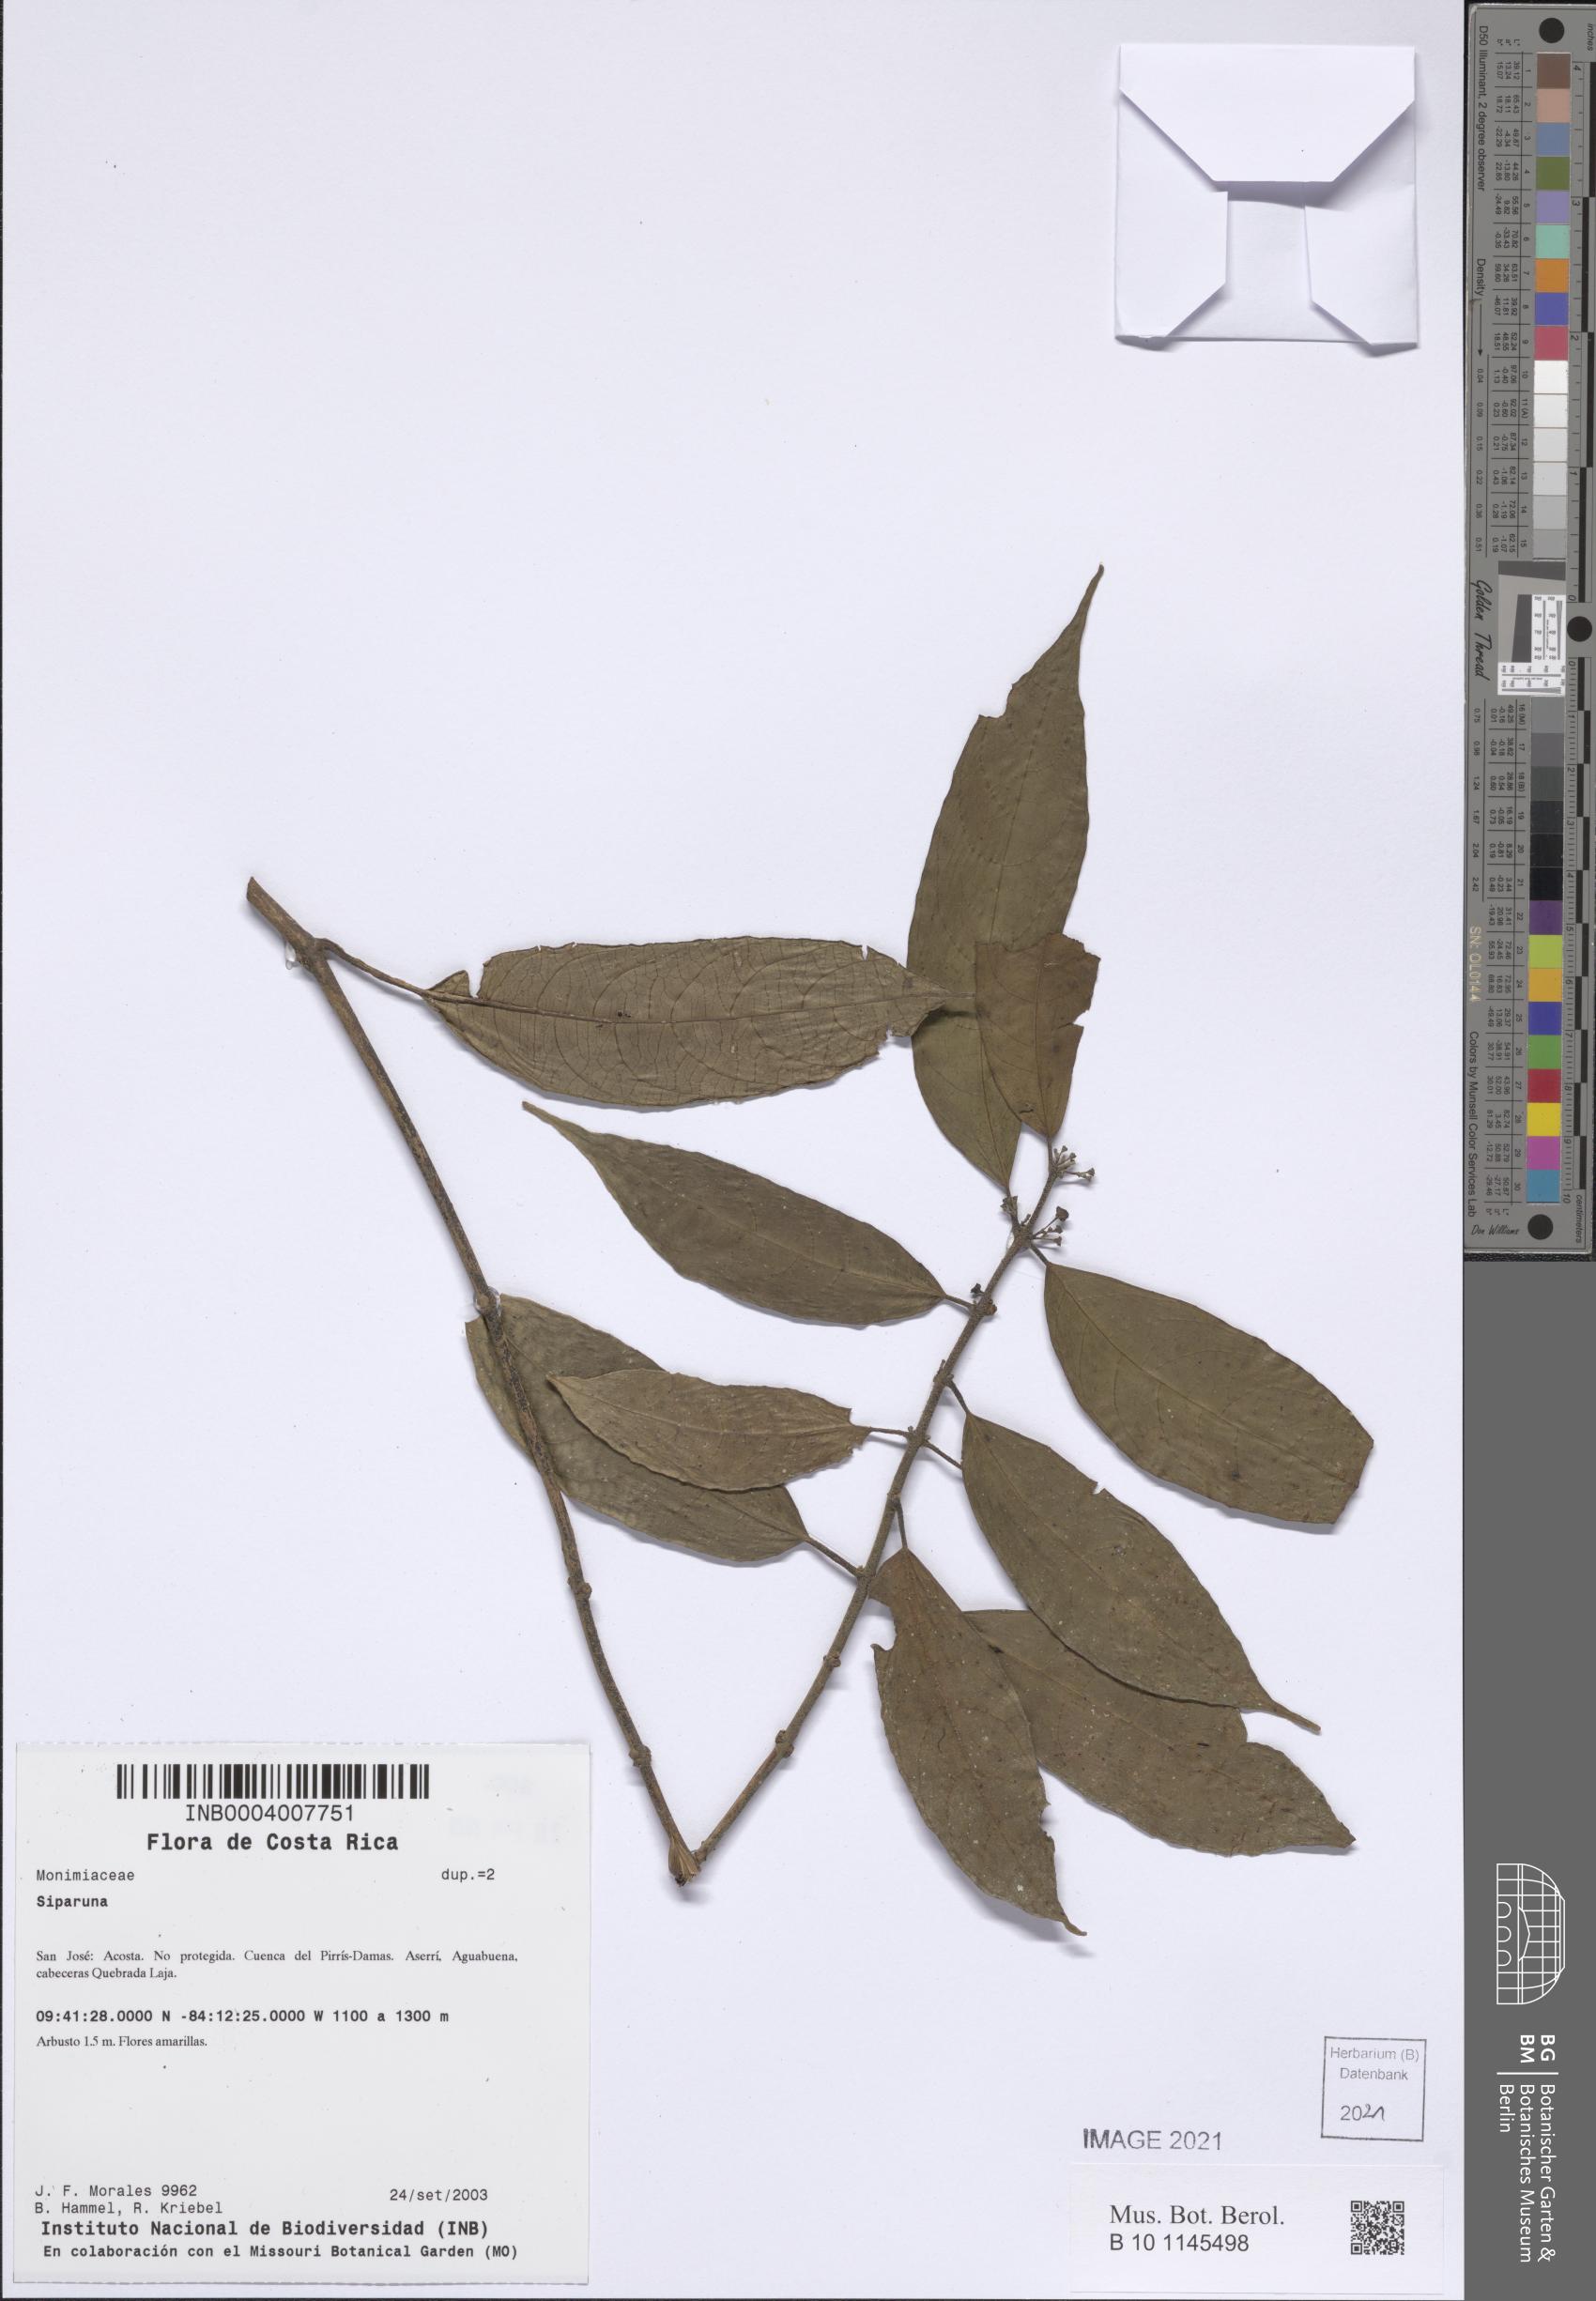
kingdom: Plantae
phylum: Tracheophyta
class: Magnoliopsida
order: Laurales
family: Siparunaceae
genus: Siparuna
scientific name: Siparuna
